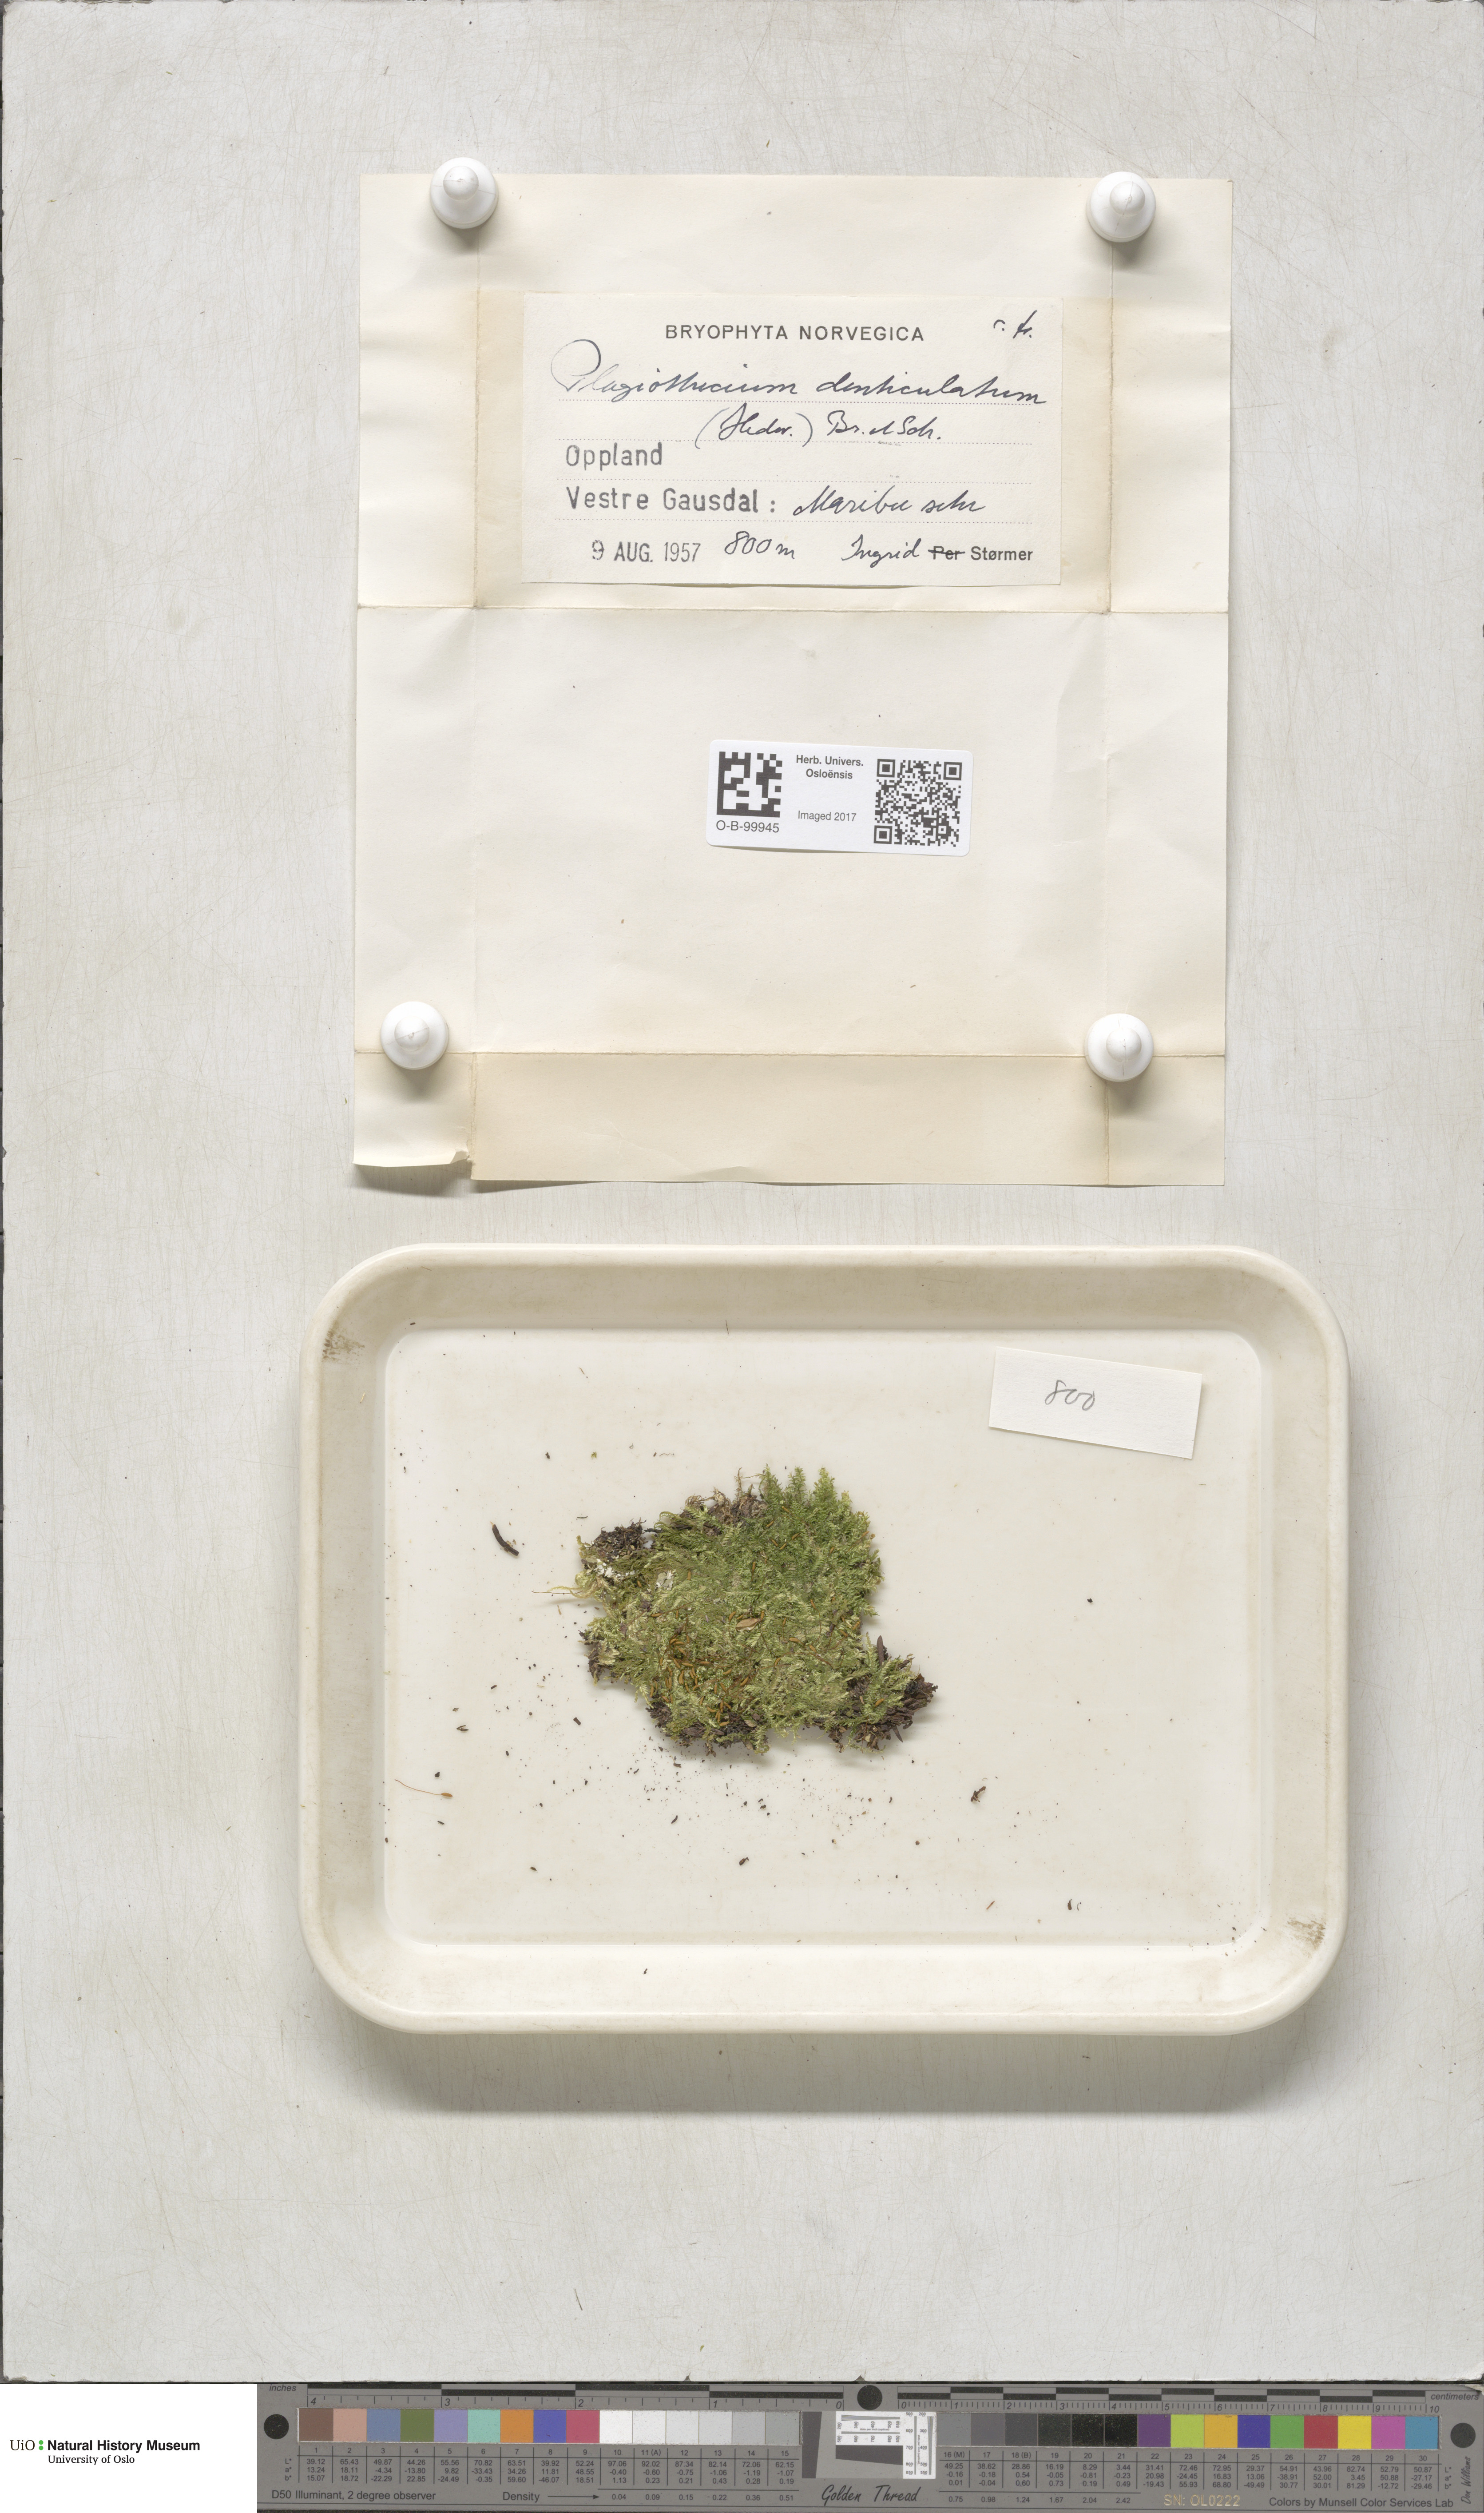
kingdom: Plantae
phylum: Bryophyta
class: Bryopsida
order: Hypnales
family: Plagiotheciaceae
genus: Plagiothecium
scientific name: Plagiothecium denticulatum
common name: Dented silk moss
